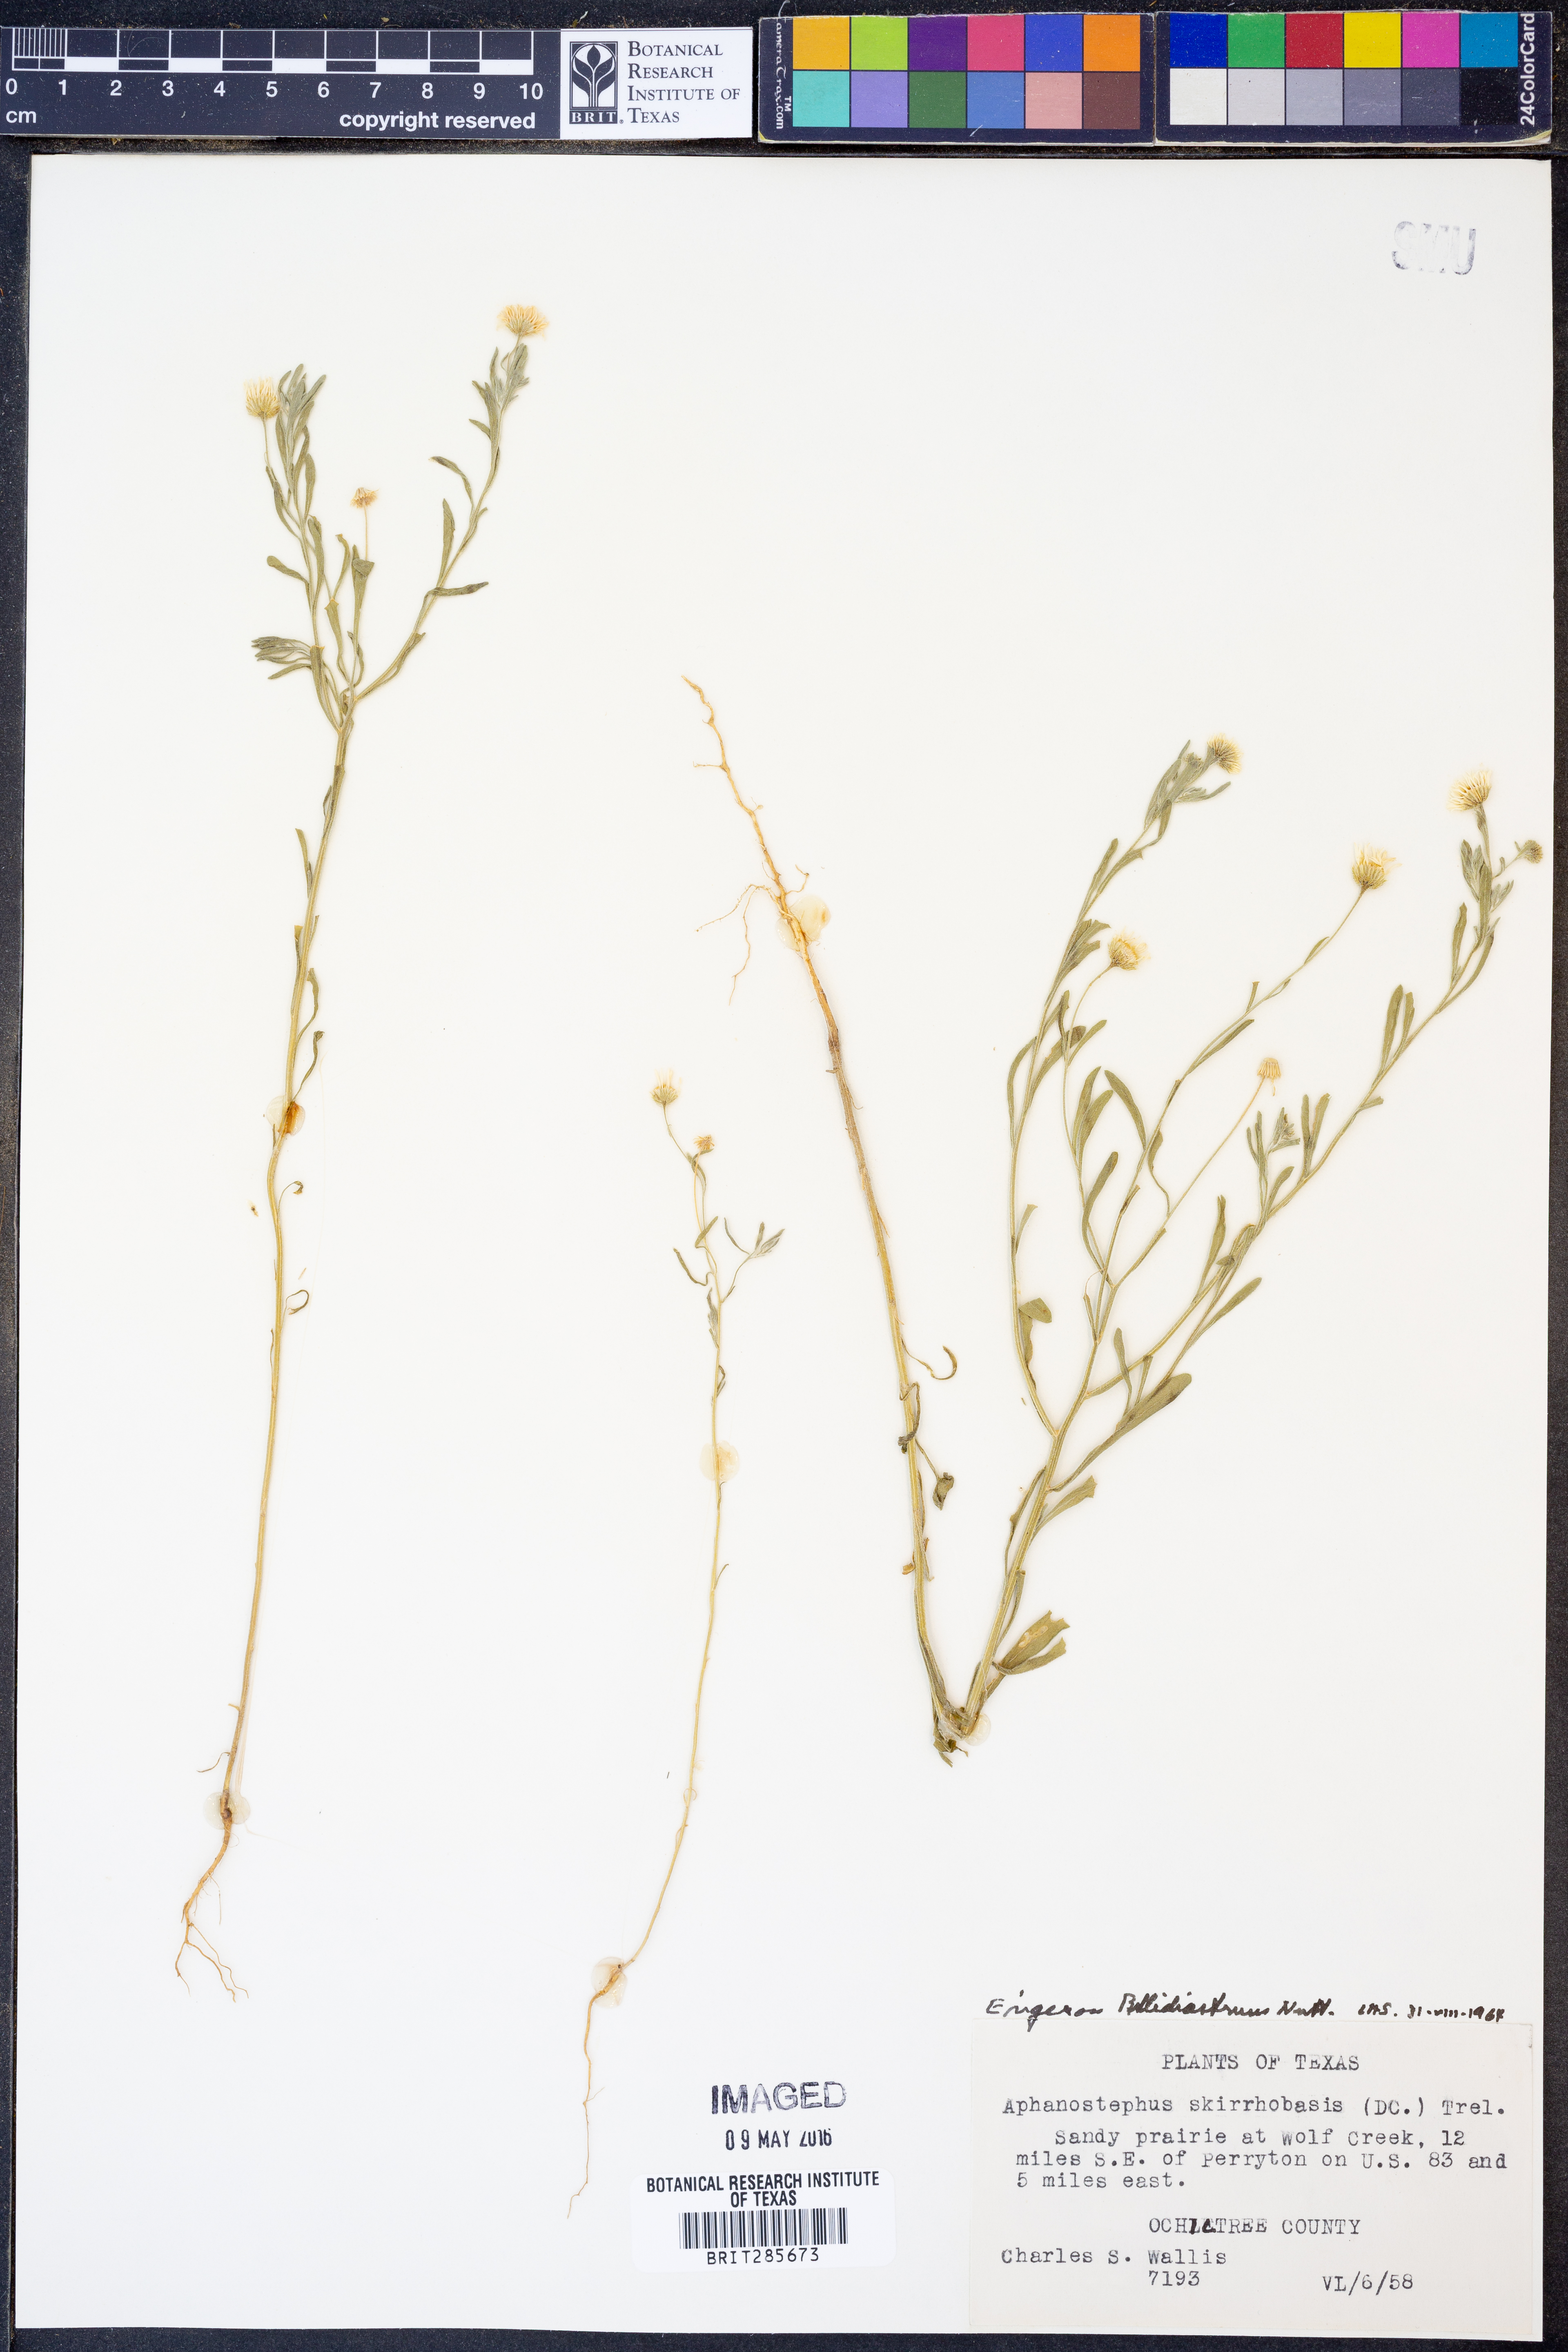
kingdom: Plantae
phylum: Tracheophyta
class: Magnoliopsida
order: Asterales
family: Asteraceae
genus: Erigeron
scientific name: Erigeron bellidiastrum
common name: Sand fleabane
